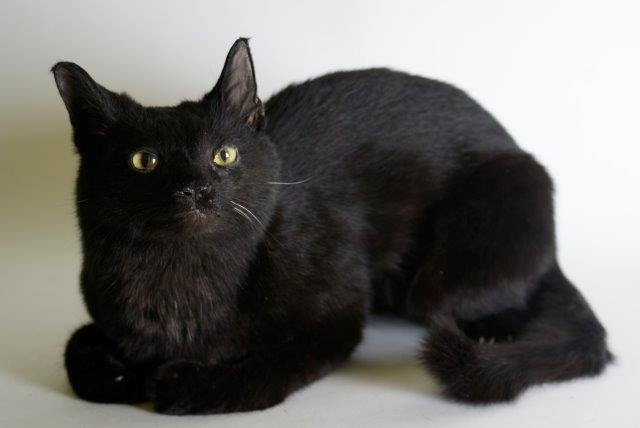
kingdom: Animalia
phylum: Chordata
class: Mammalia
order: Carnivora
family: Felidae
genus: Felis
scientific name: Felis catus
